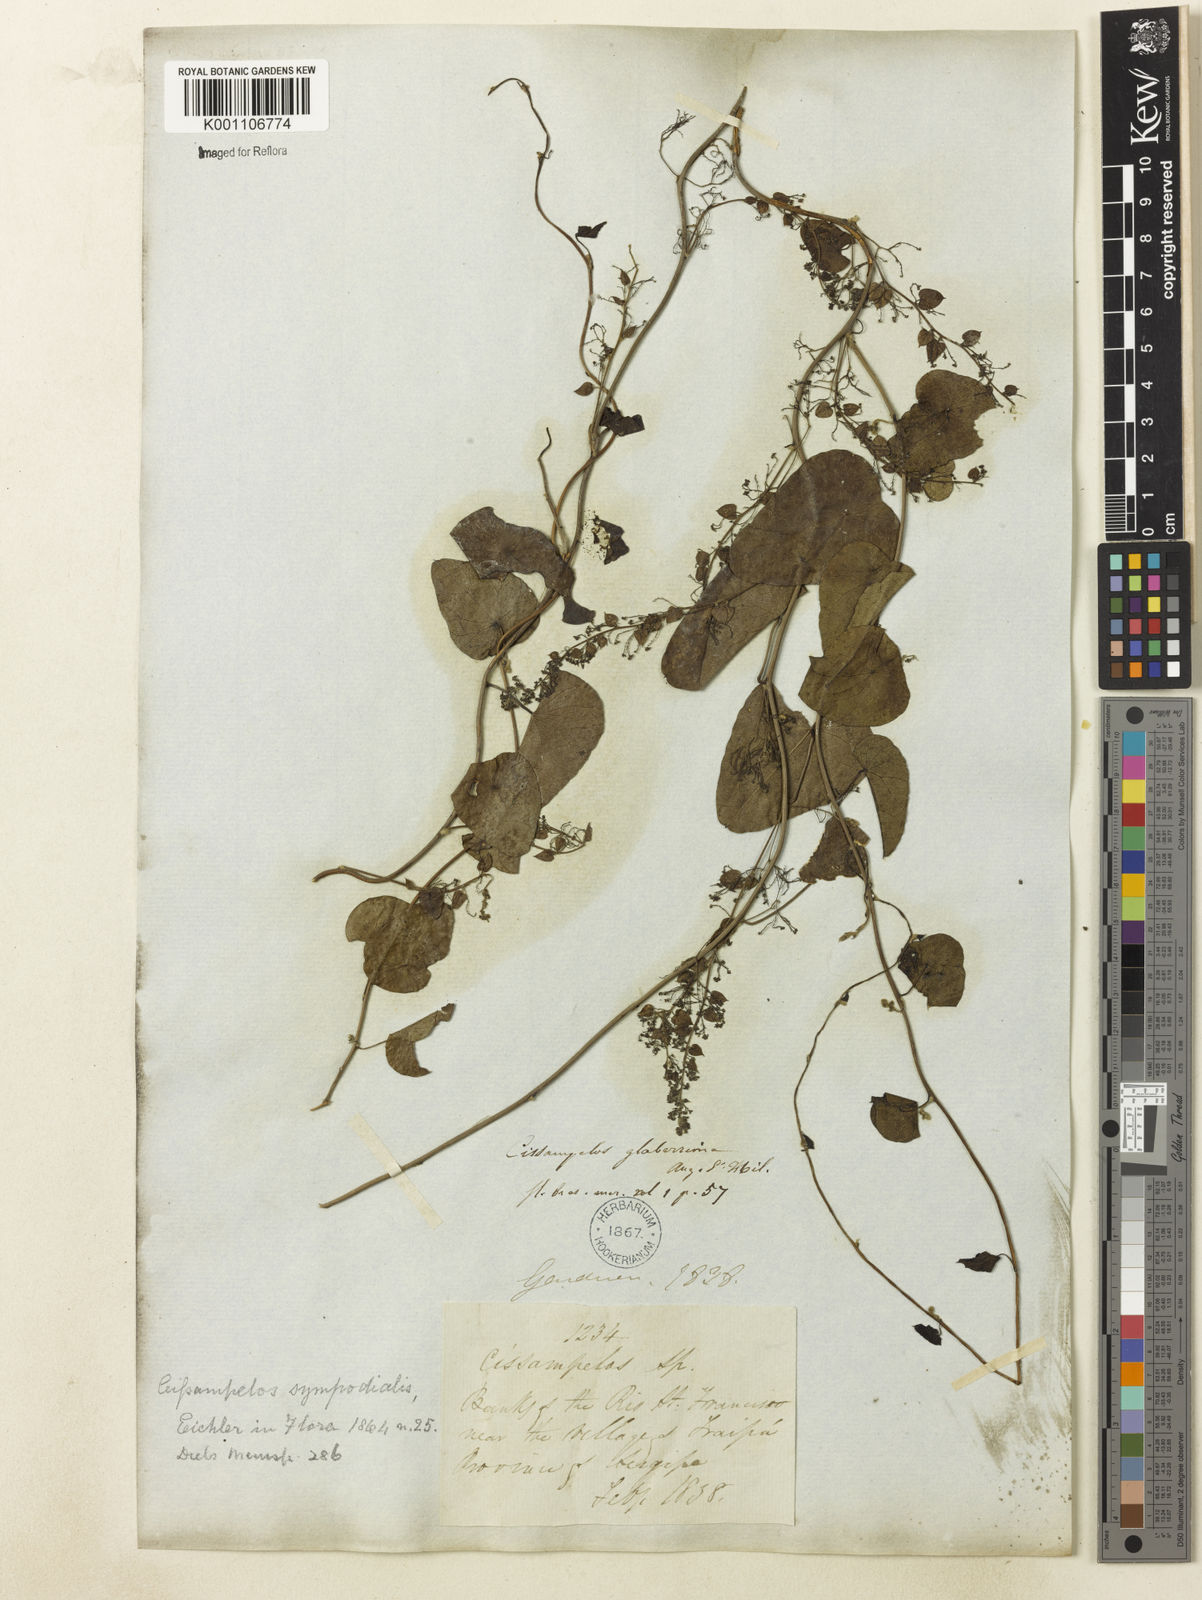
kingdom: Plantae
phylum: Tracheophyta
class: Magnoliopsida
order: Ranunculales
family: Menispermaceae
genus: Cissampelos
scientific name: Cissampelos sympodialis
